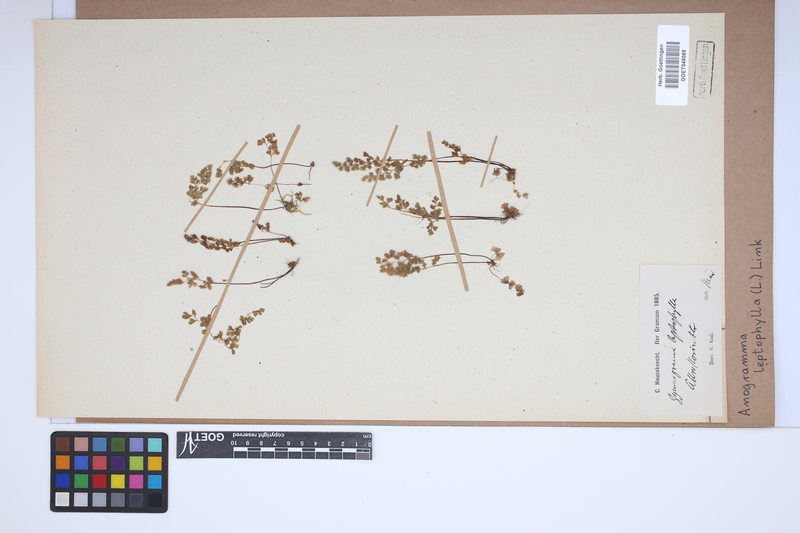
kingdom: Plantae
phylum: Tracheophyta
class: Polypodiopsida
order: Polypodiales
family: Pteridaceae
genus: Anogramma
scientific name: Anogramma leptophylla
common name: Jersey fern
